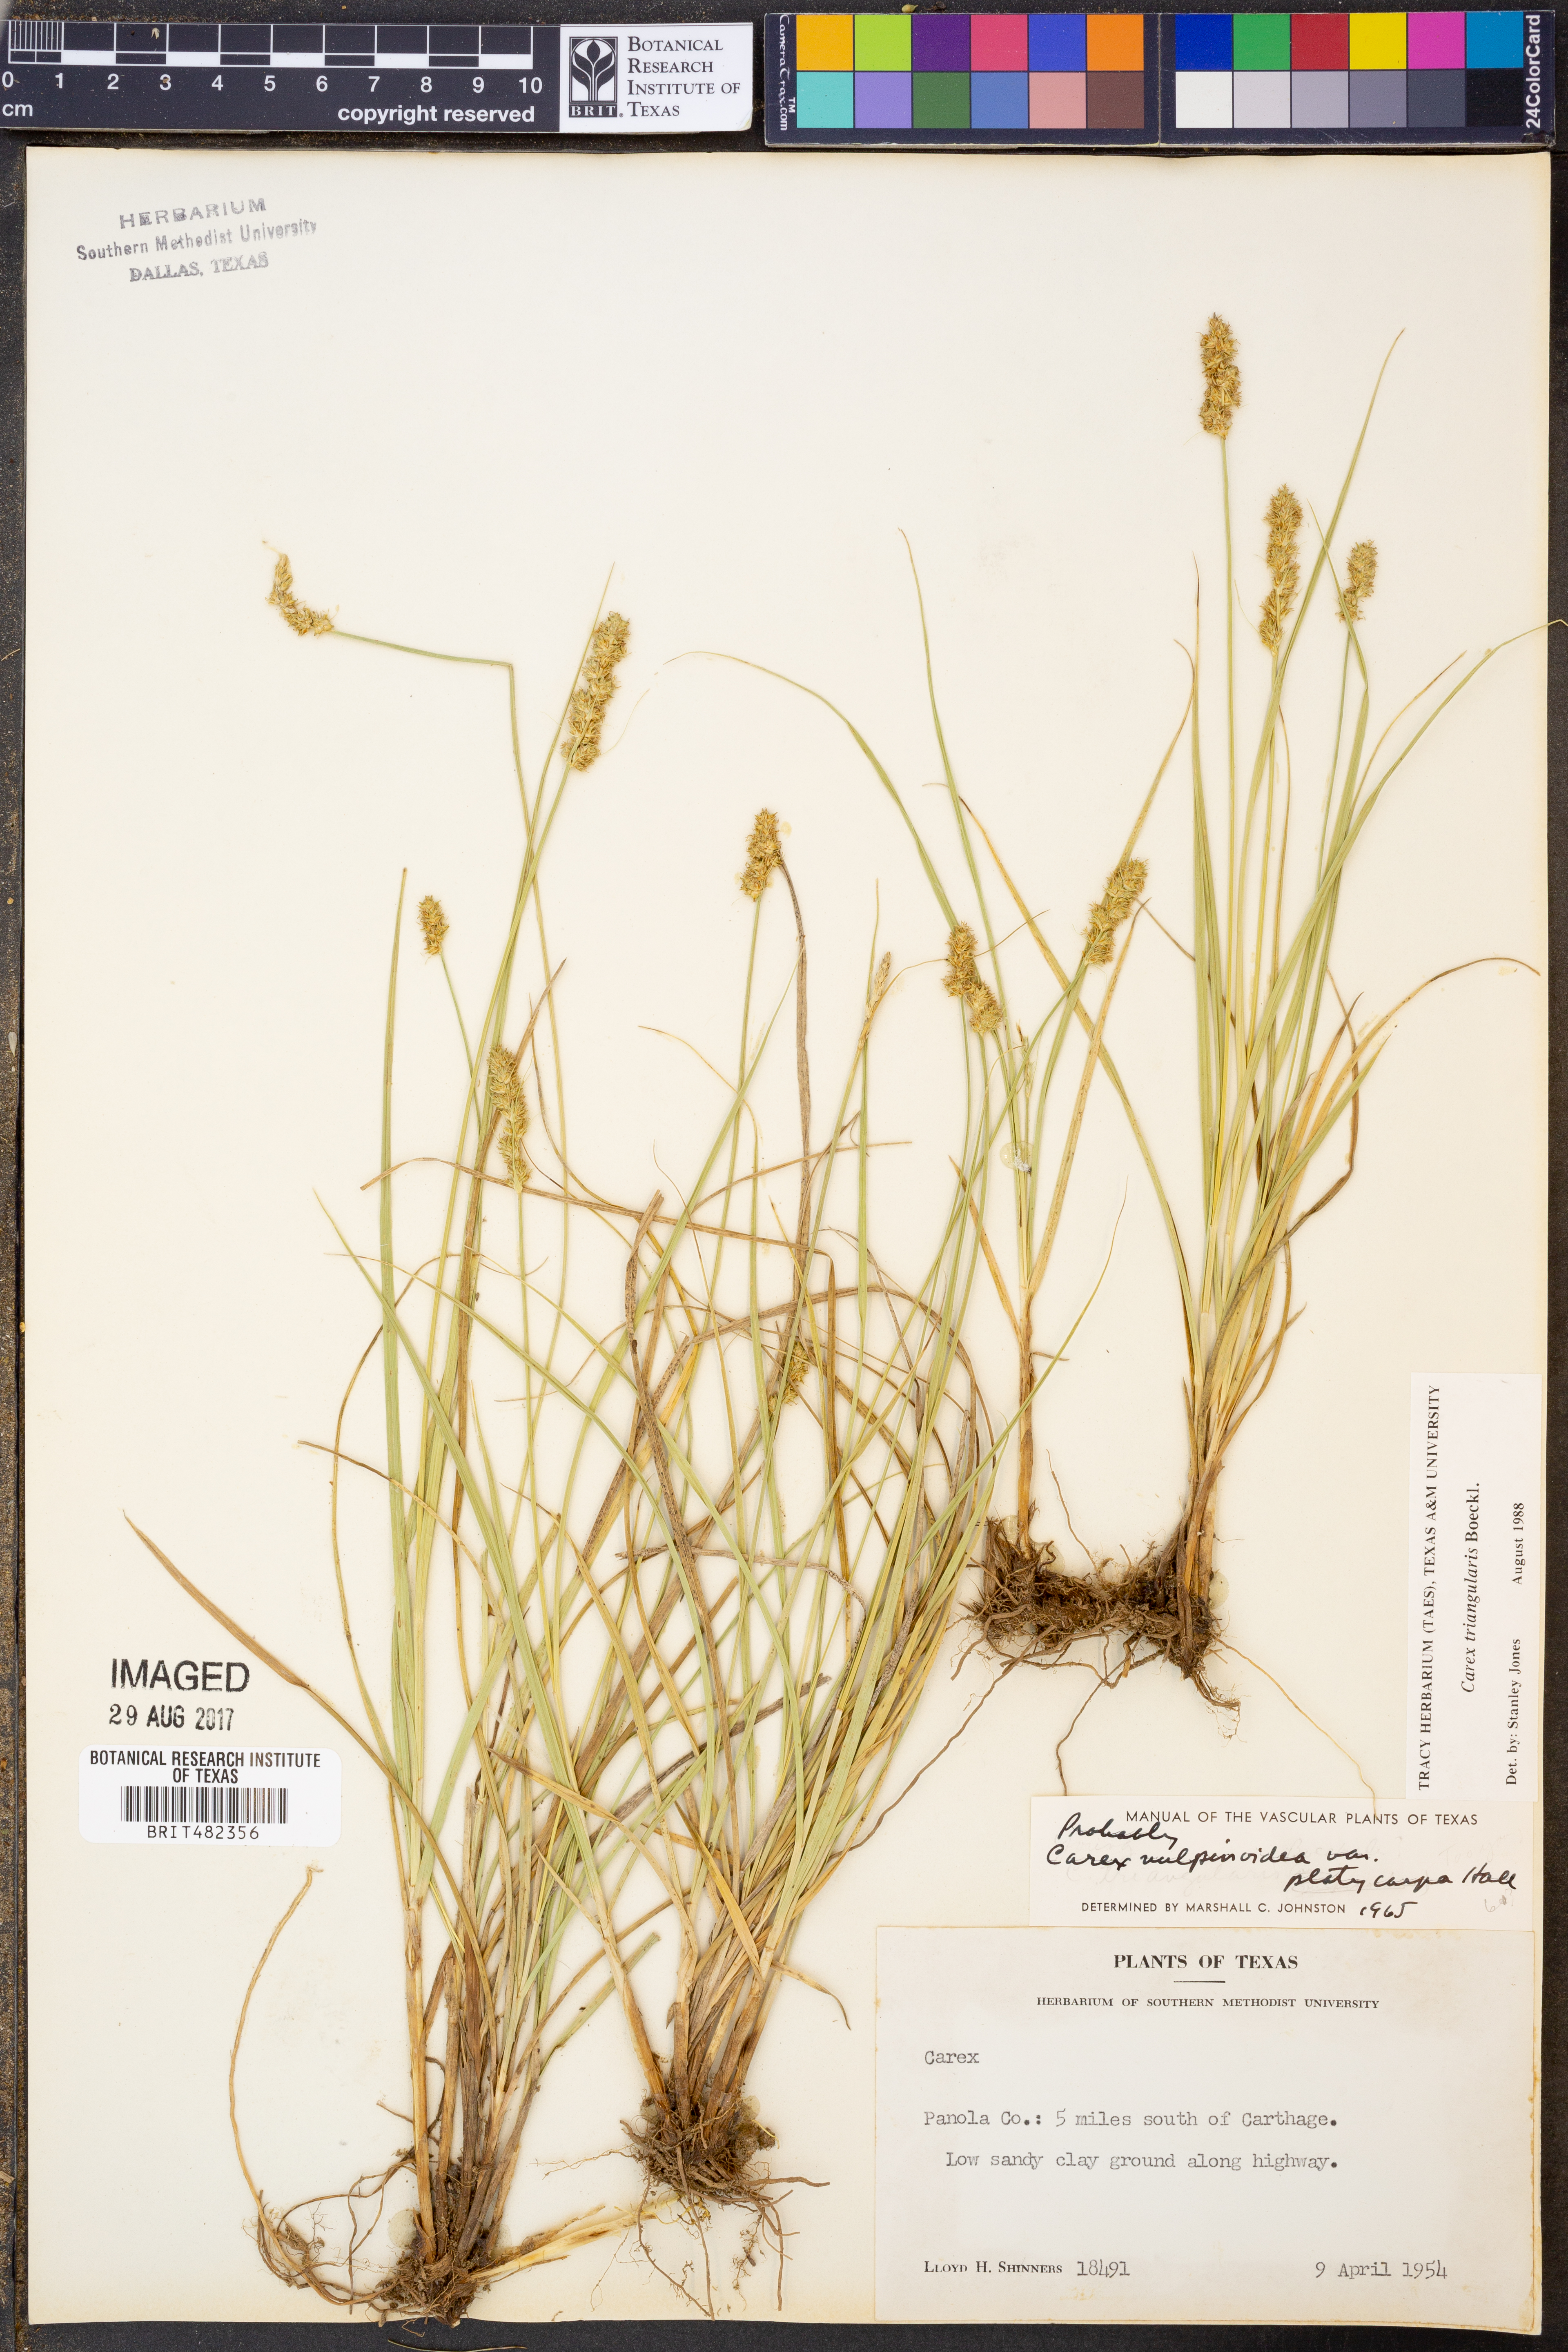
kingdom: Plantae
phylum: Tracheophyta
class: Liliopsida
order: Poales
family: Cyperaceae
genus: Carex
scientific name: Carex triangularis
